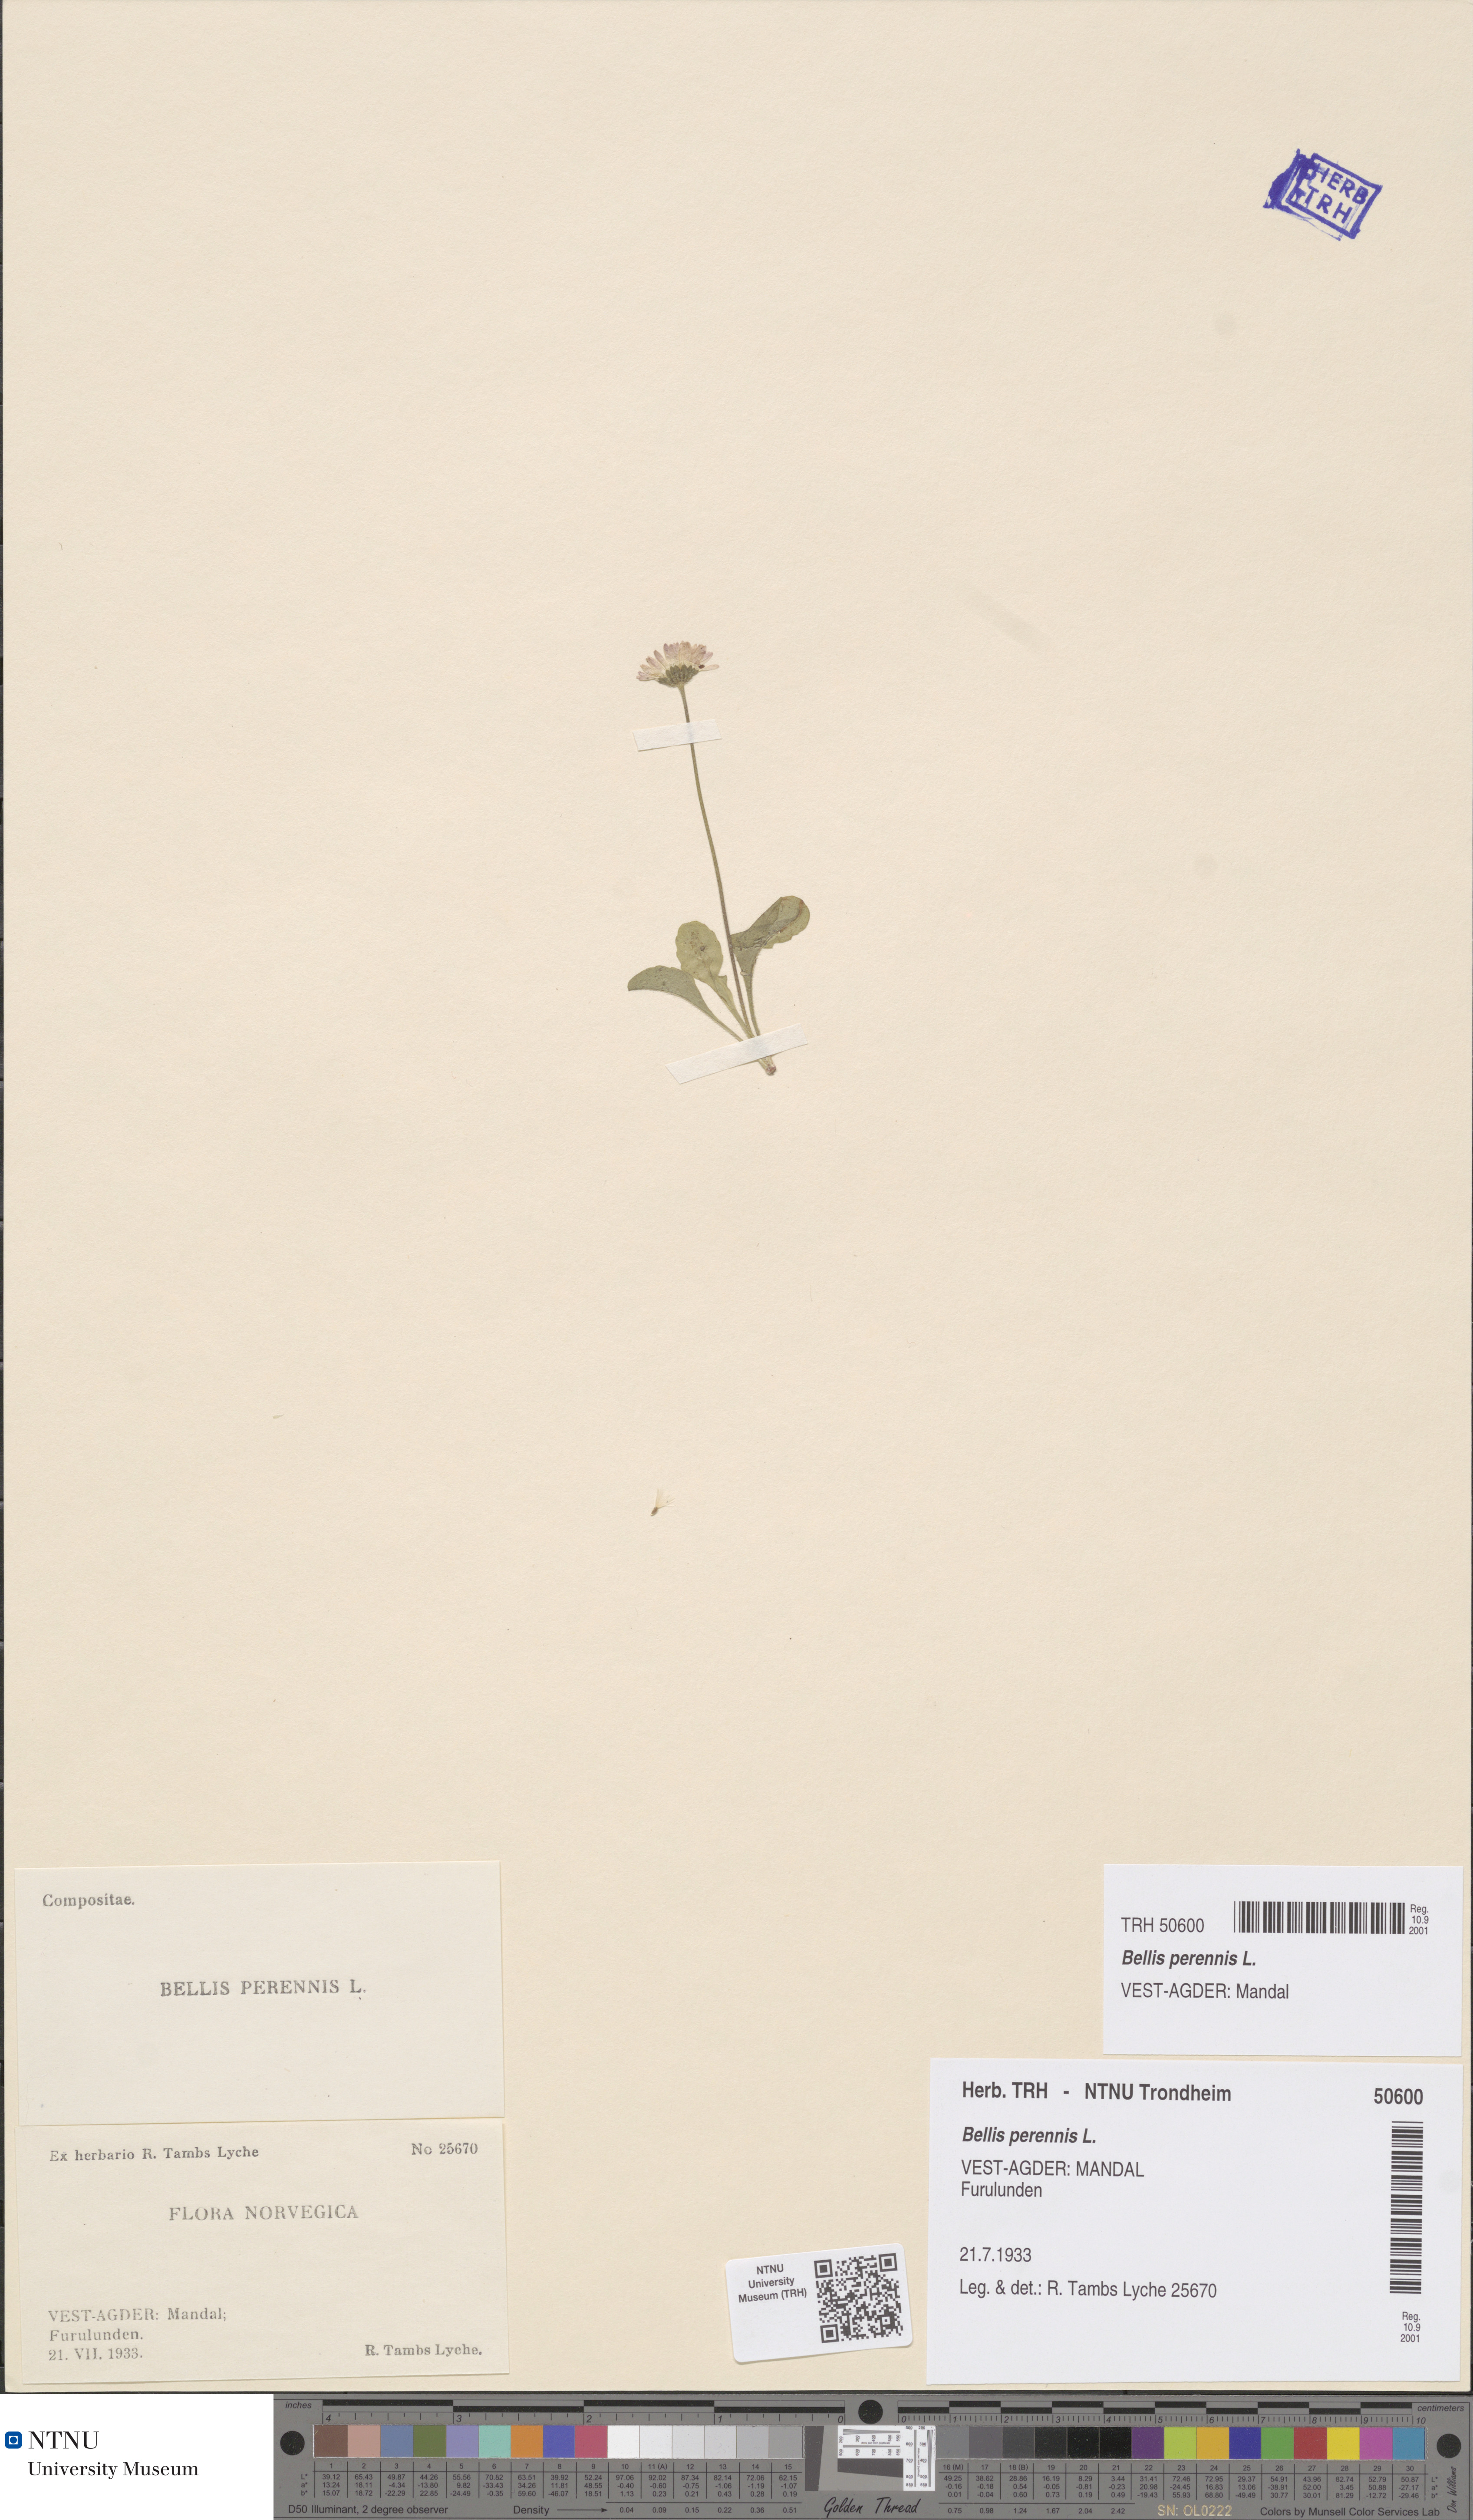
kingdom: Plantae
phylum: Tracheophyta
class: Magnoliopsida
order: Asterales
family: Asteraceae
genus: Bellis
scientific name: Bellis perennis
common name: Lawndaisy
